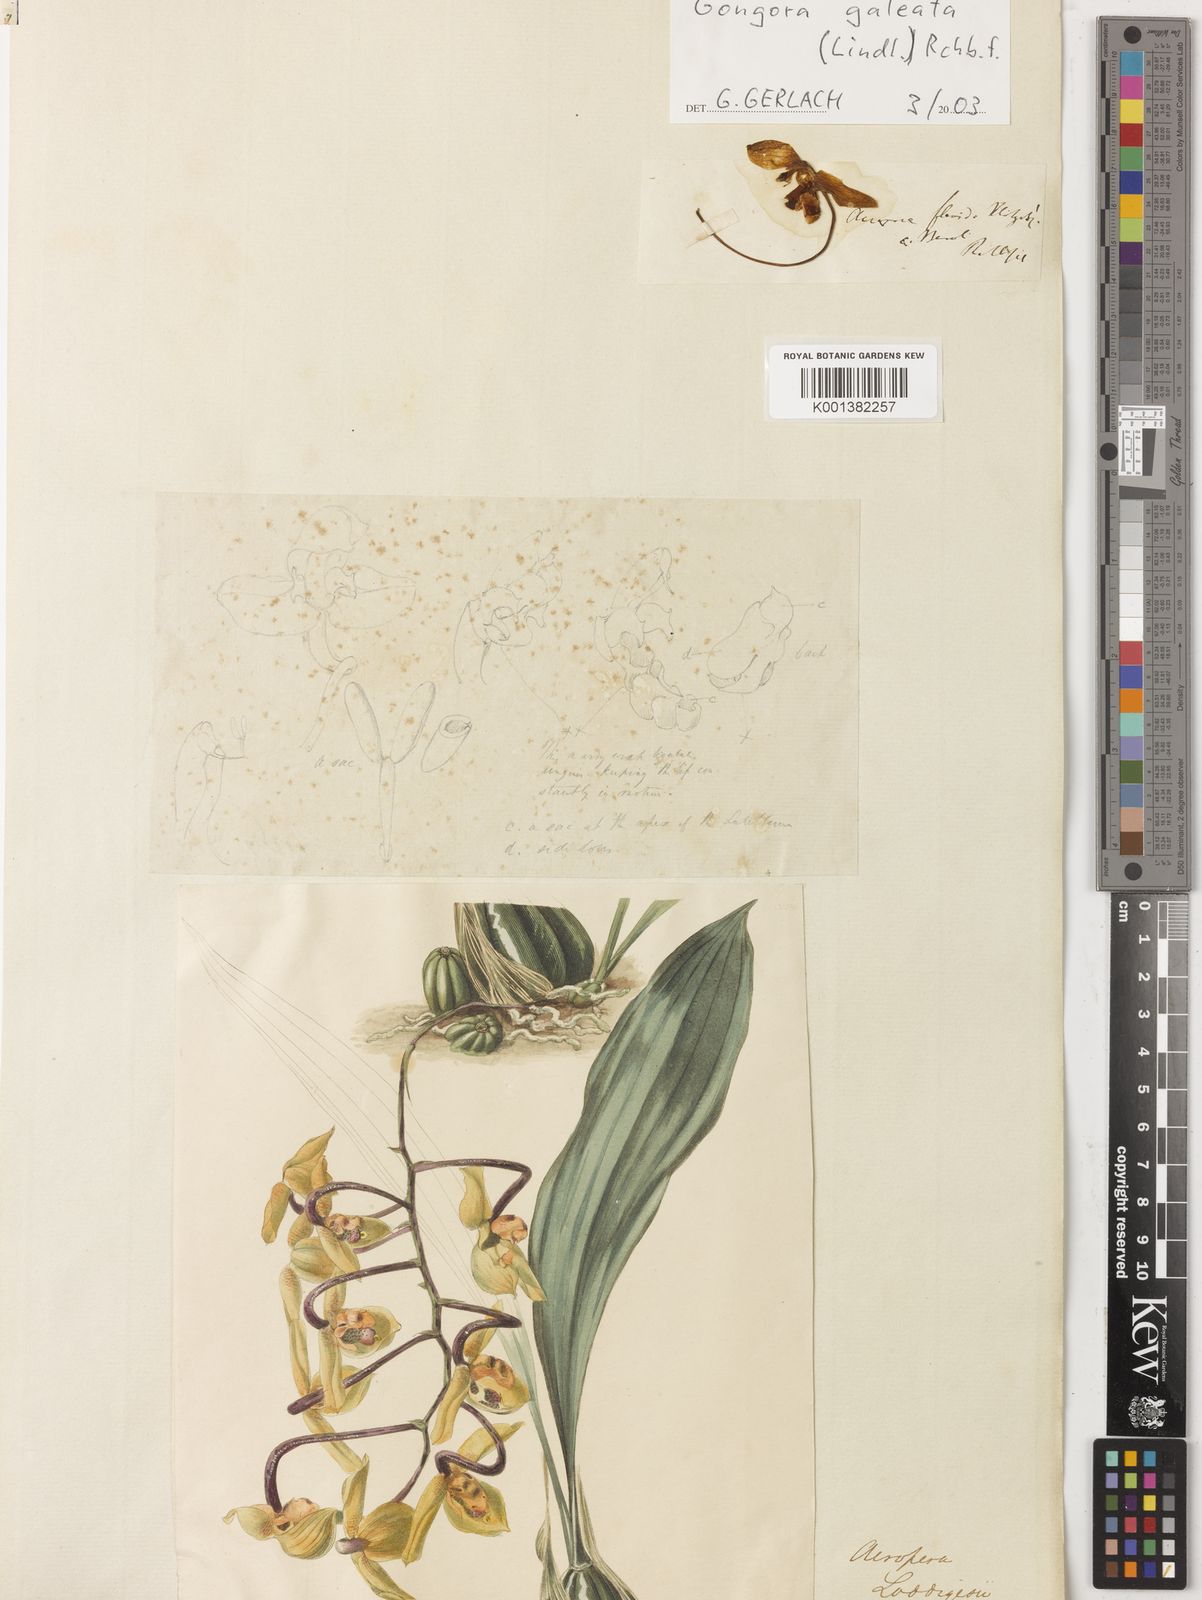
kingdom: Plantae
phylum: Tracheophyta
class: Liliopsida
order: Asparagales
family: Orchidaceae
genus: Gongora
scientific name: Gongora galeata
